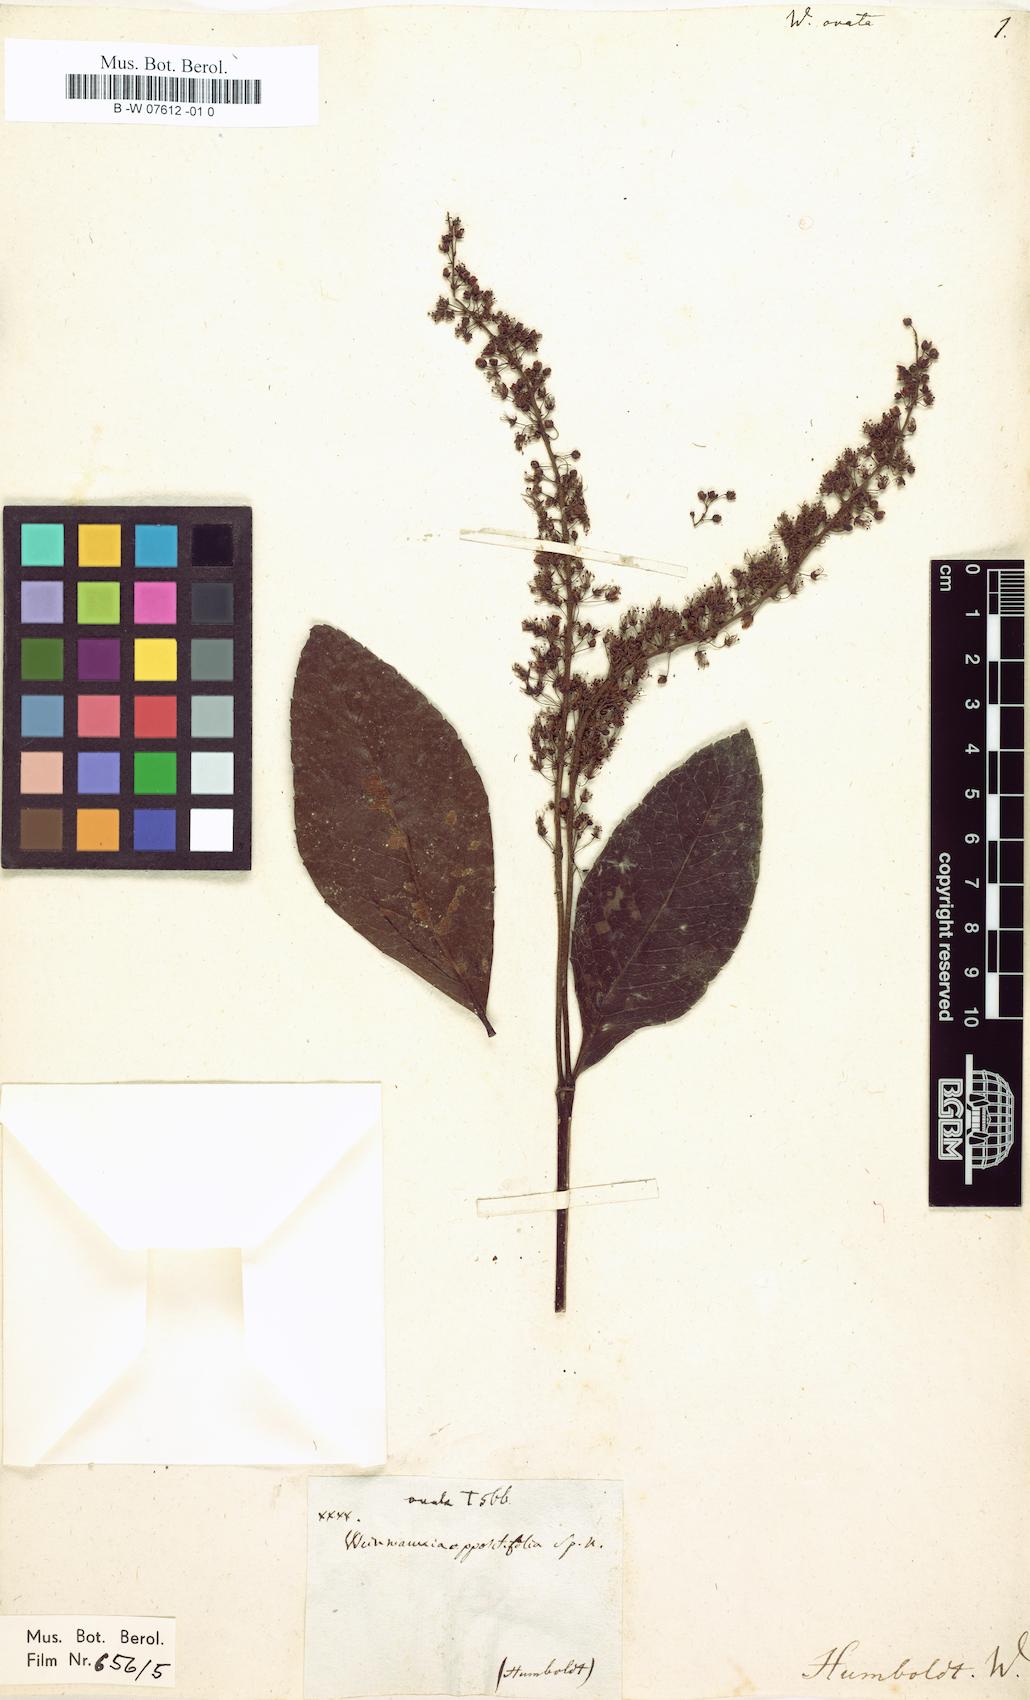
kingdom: Plantae
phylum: Tracheophyta
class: Magnoliopsida
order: Oxalidales
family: Cunoniaceae
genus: Weinmannia
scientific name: Weinmannia ovata
